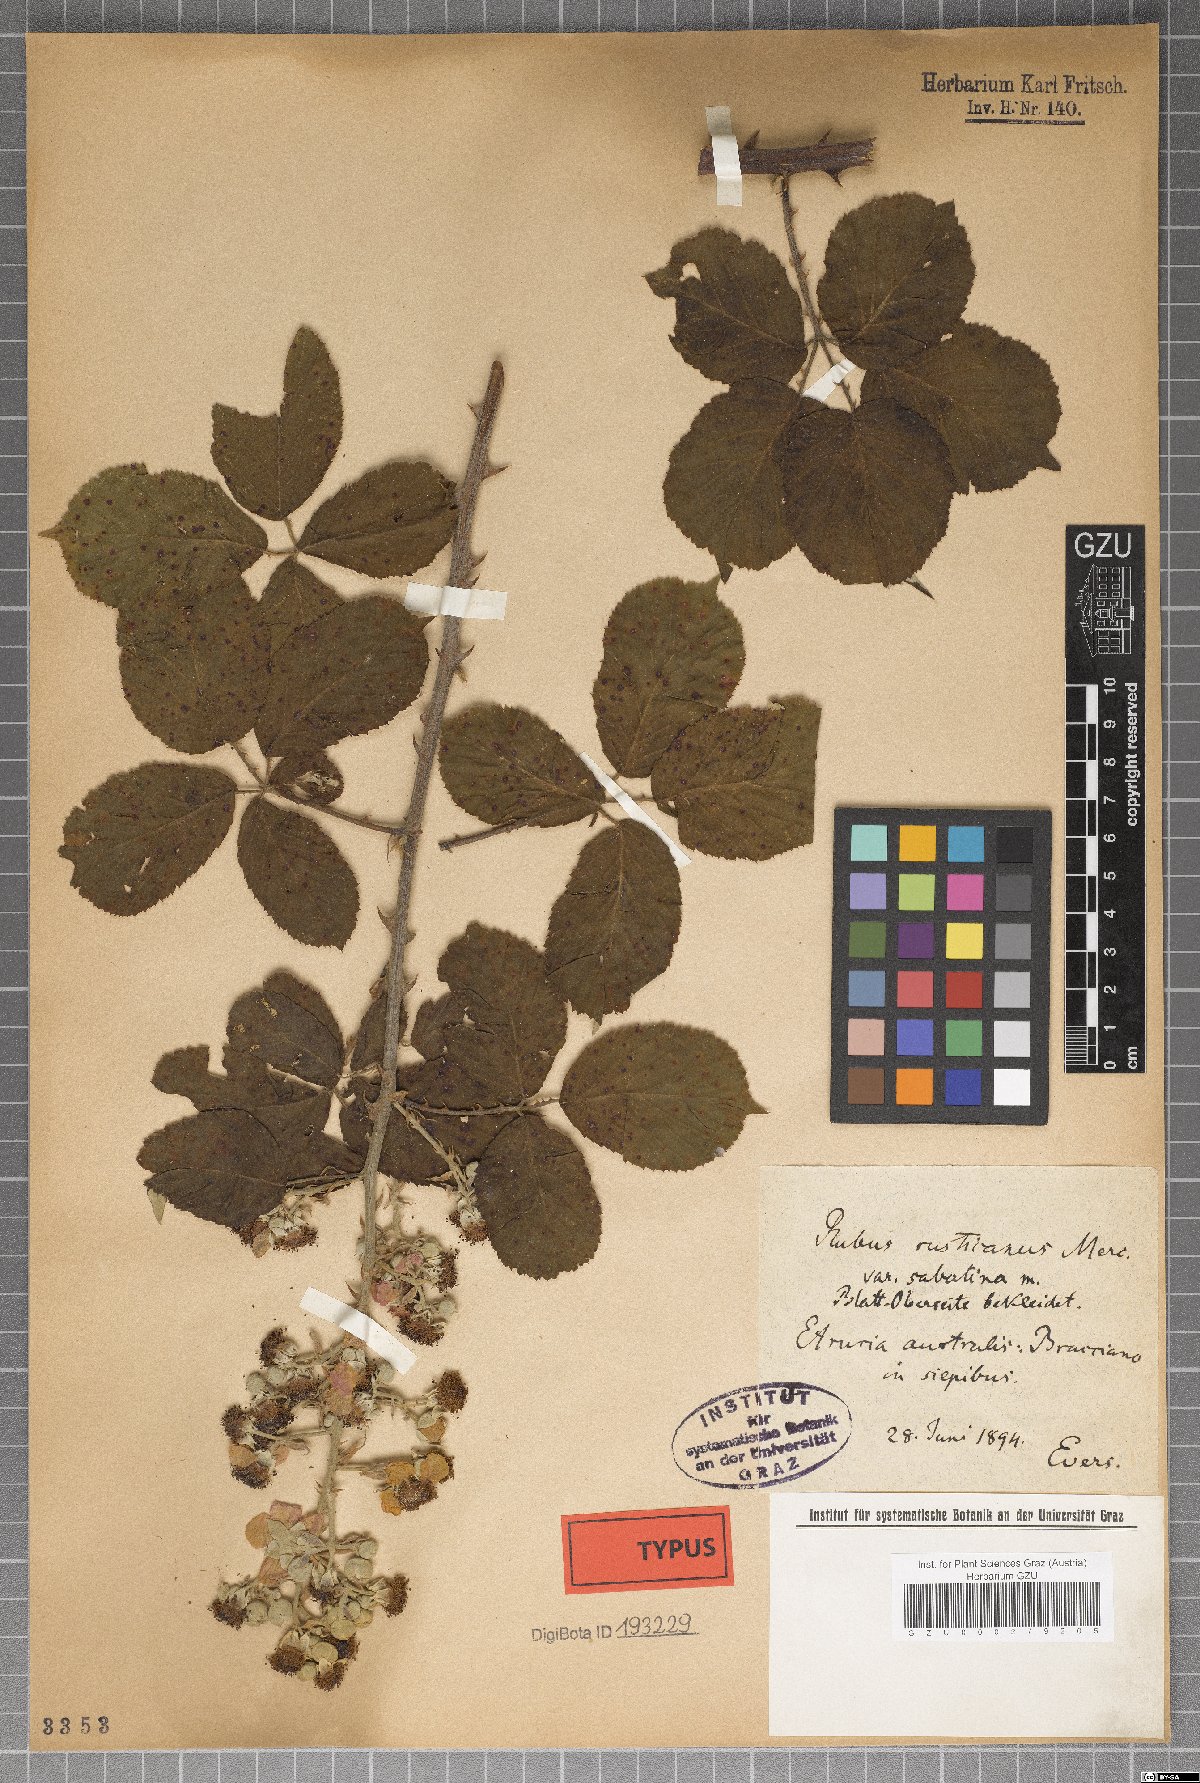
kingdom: Plantae
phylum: Tracheophyta
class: Magnoliopsida
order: Rosales
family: Rosaceae
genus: Rubus
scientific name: Rubus sabatinus
